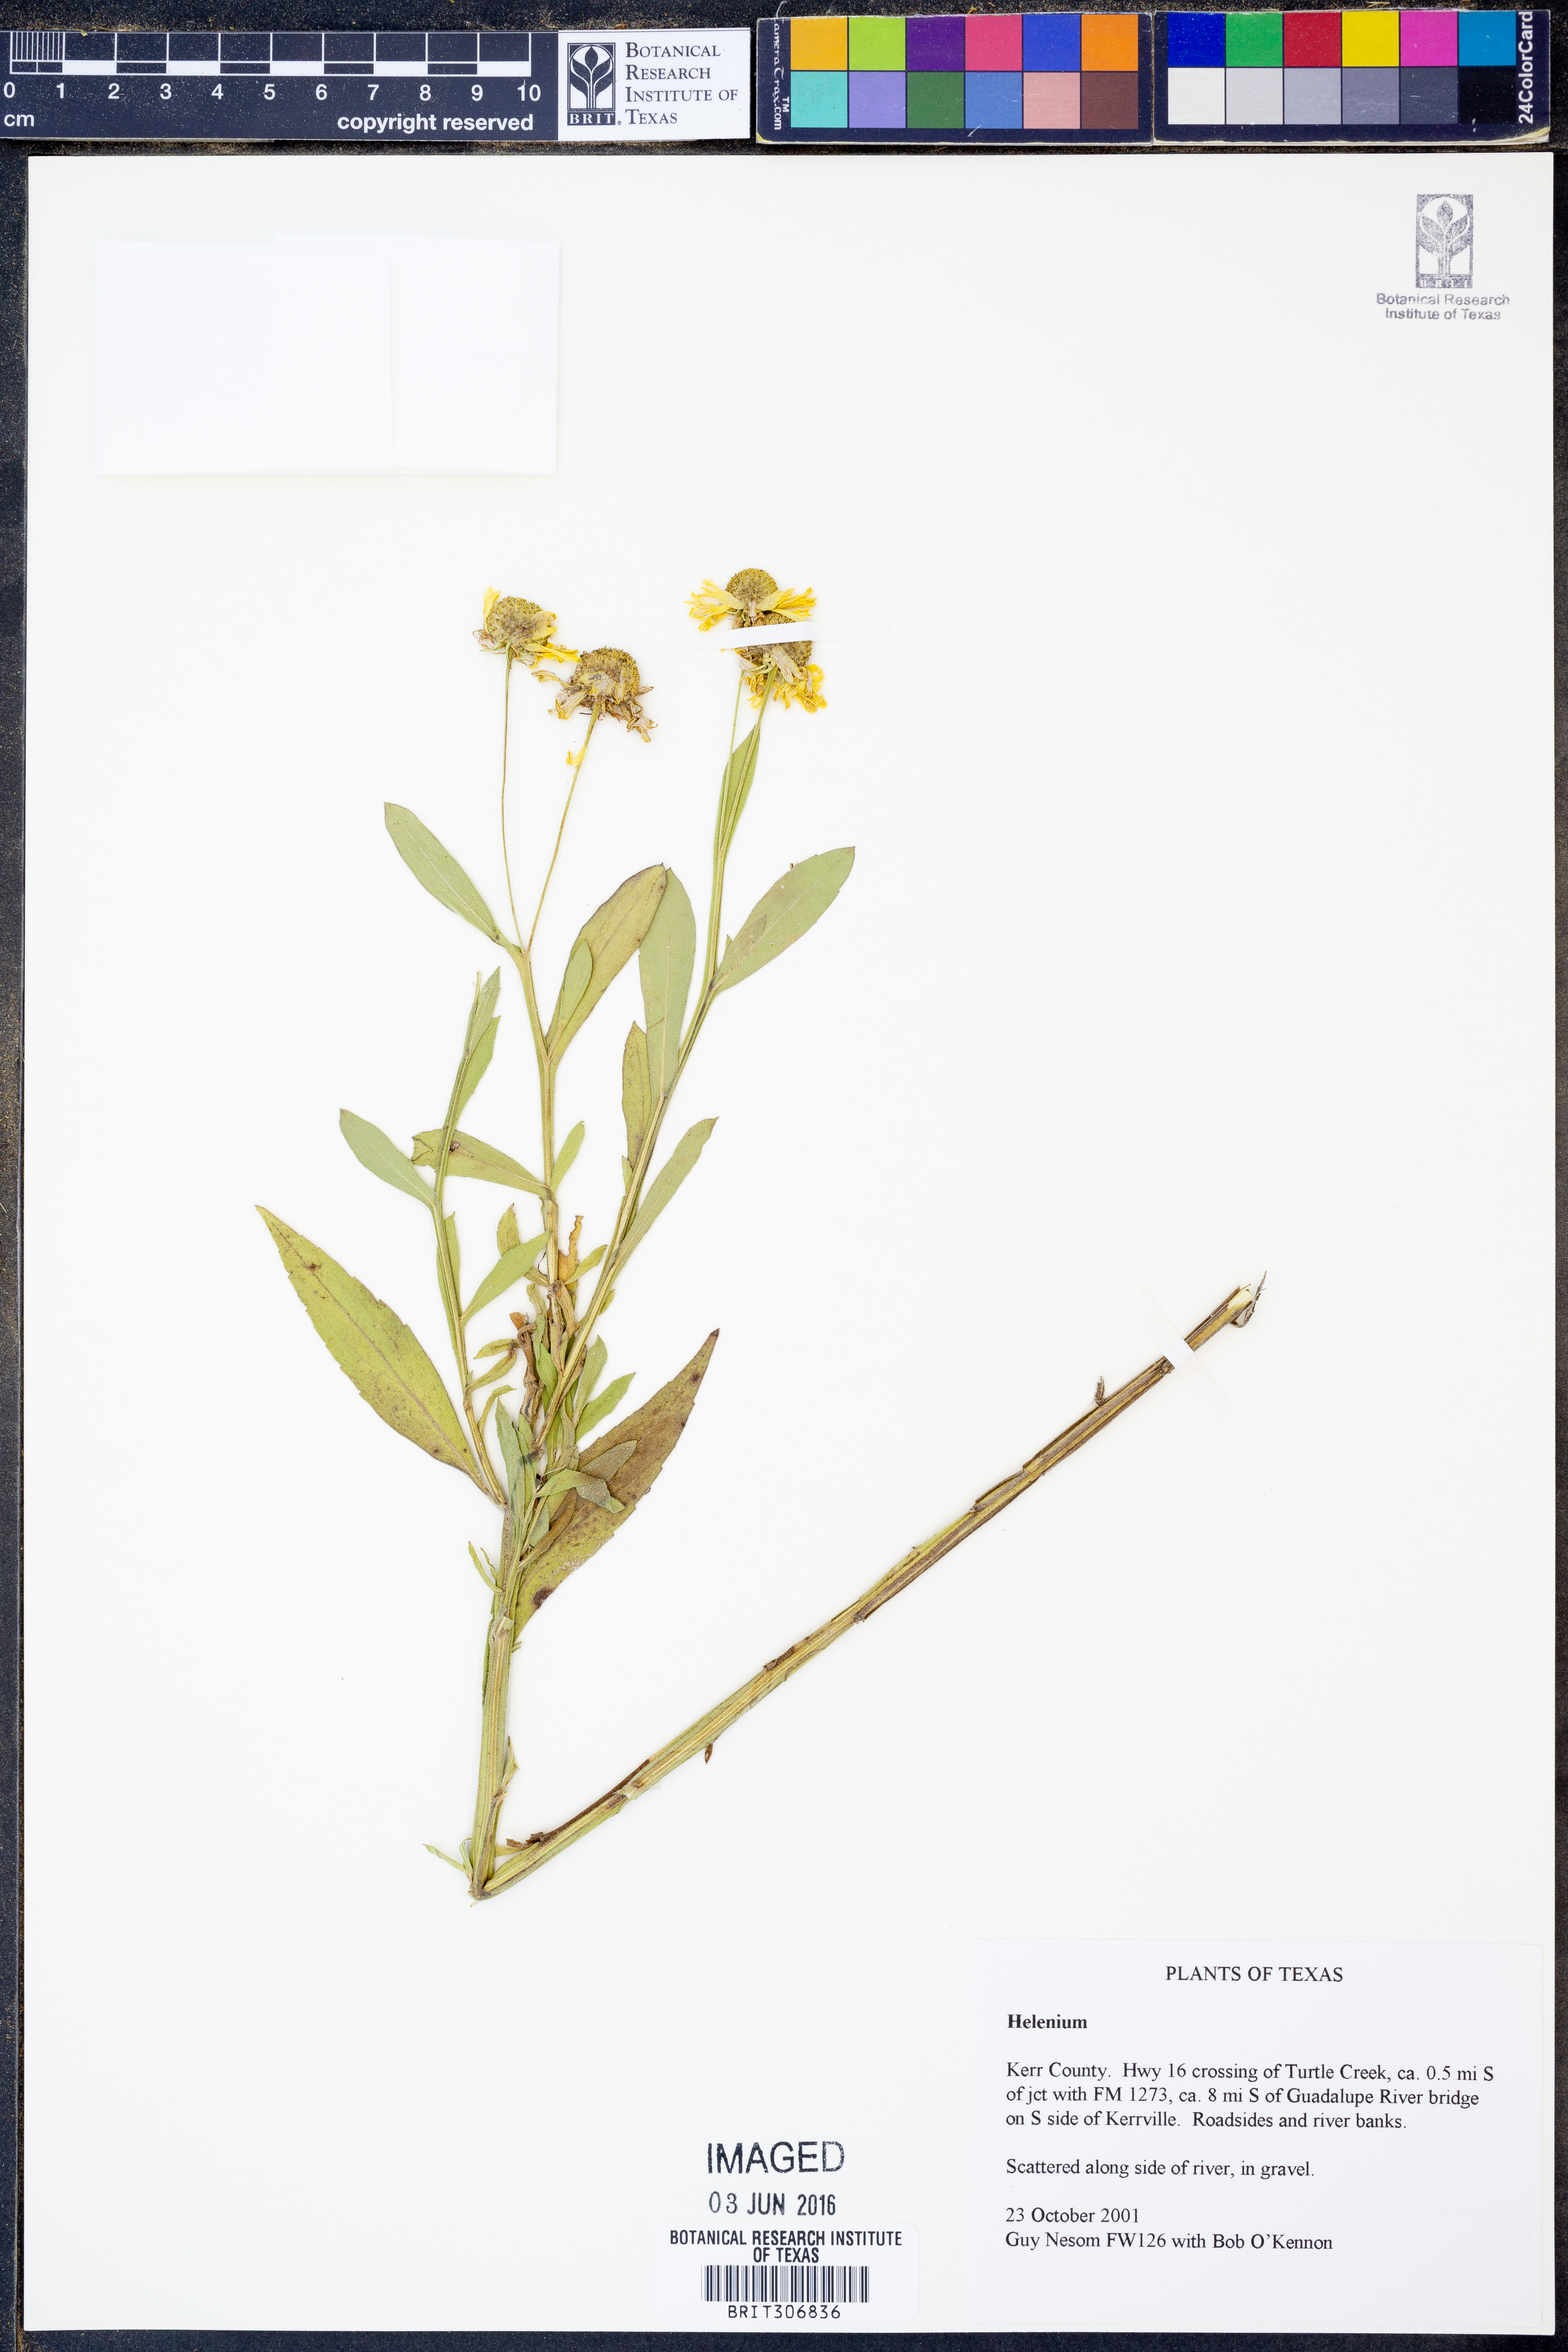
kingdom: Plantae
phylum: Tracheophyta
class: Magnoliopsida
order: Asterales
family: Asteraceae
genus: Helenium
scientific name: Helenium
